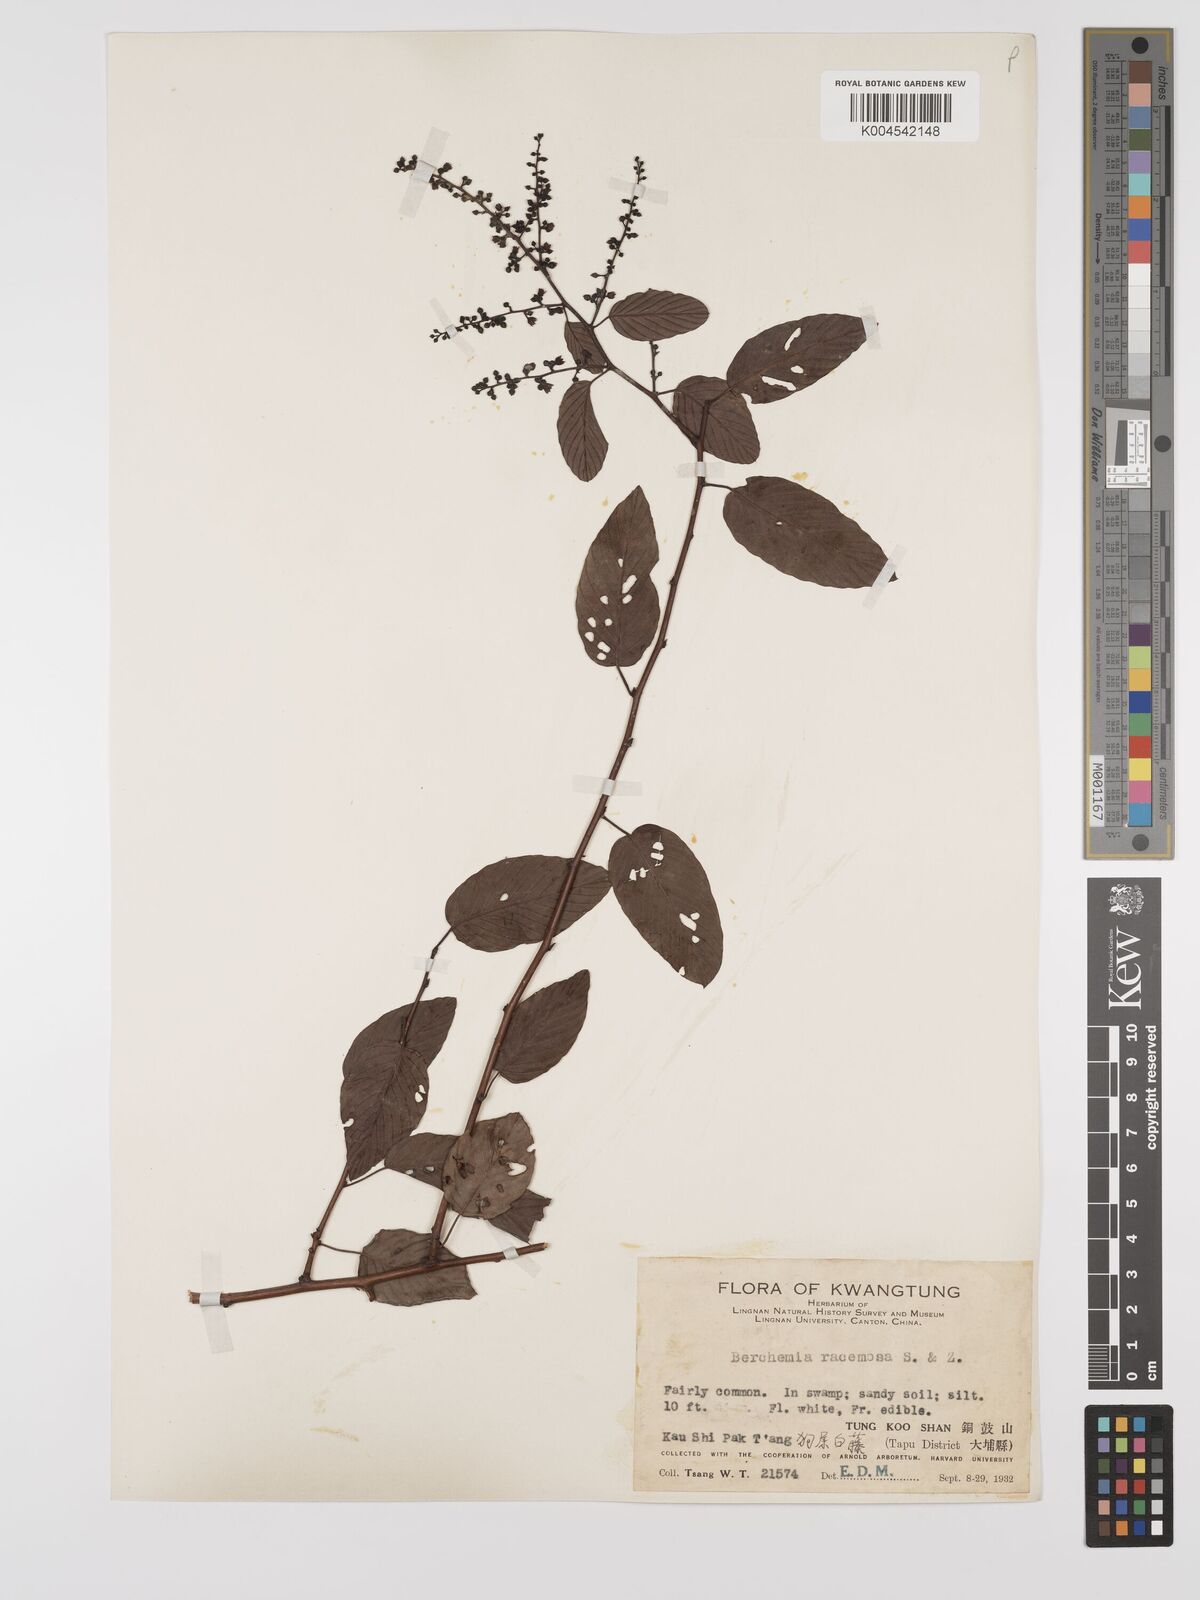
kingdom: Plantae
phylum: Tracheophyta
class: Magnoliopsida
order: Rosales
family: Rhamnaceae
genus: Berchemia
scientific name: Berchemia floribunda
